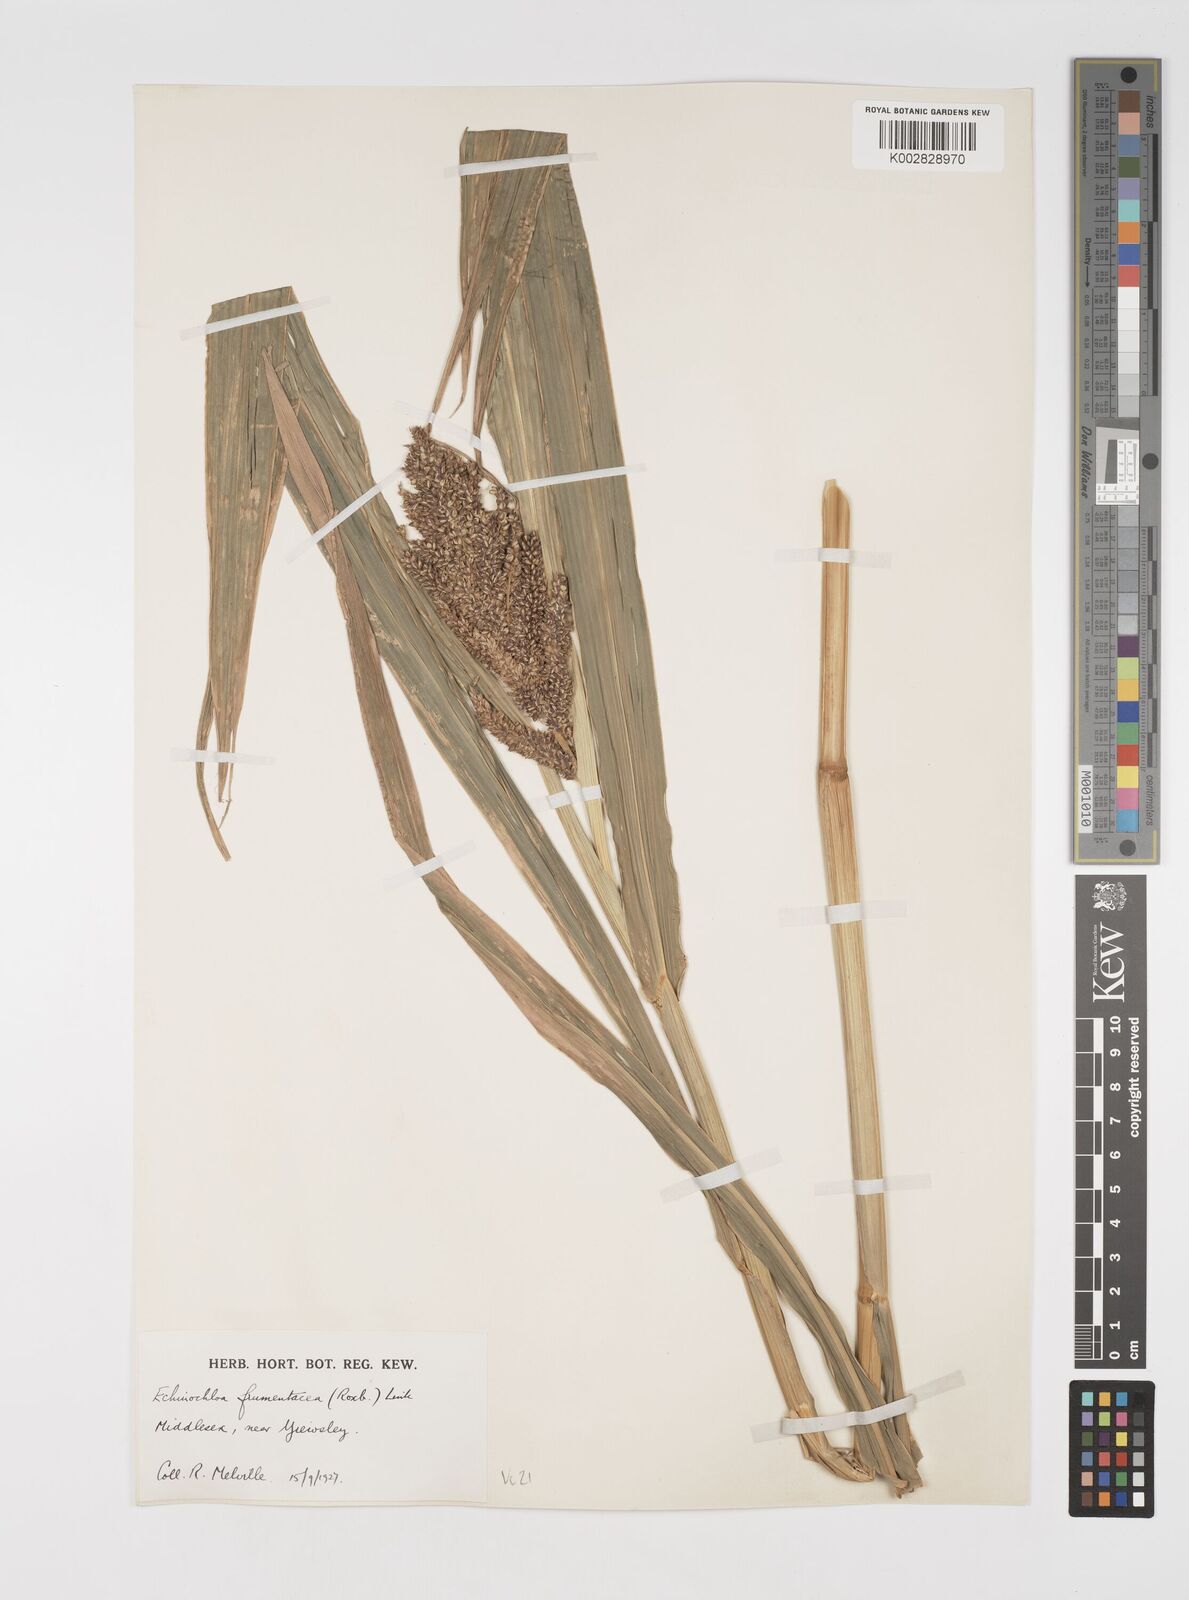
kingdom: Plantae
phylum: Tracheophyta
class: Liliopsida
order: Poales
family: Poaceae
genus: Echinochloa
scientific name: Echinochloa crus-galli
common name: Cockspur
